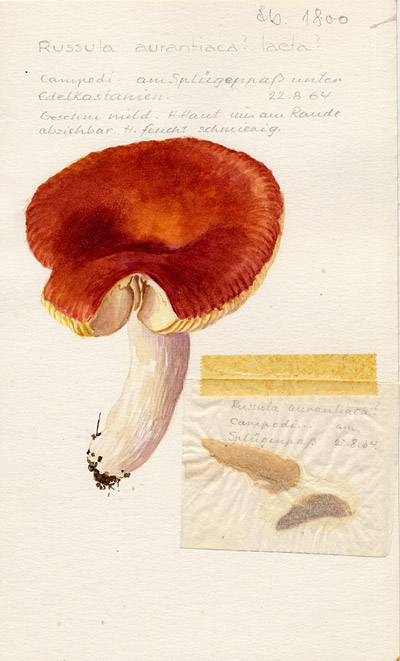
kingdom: Fungi
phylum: Basidiomycota
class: Agaricomycetes
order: Russulales
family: Russulaceae
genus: Russula
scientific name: Russula aurantiaca
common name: Orange brittlegill
